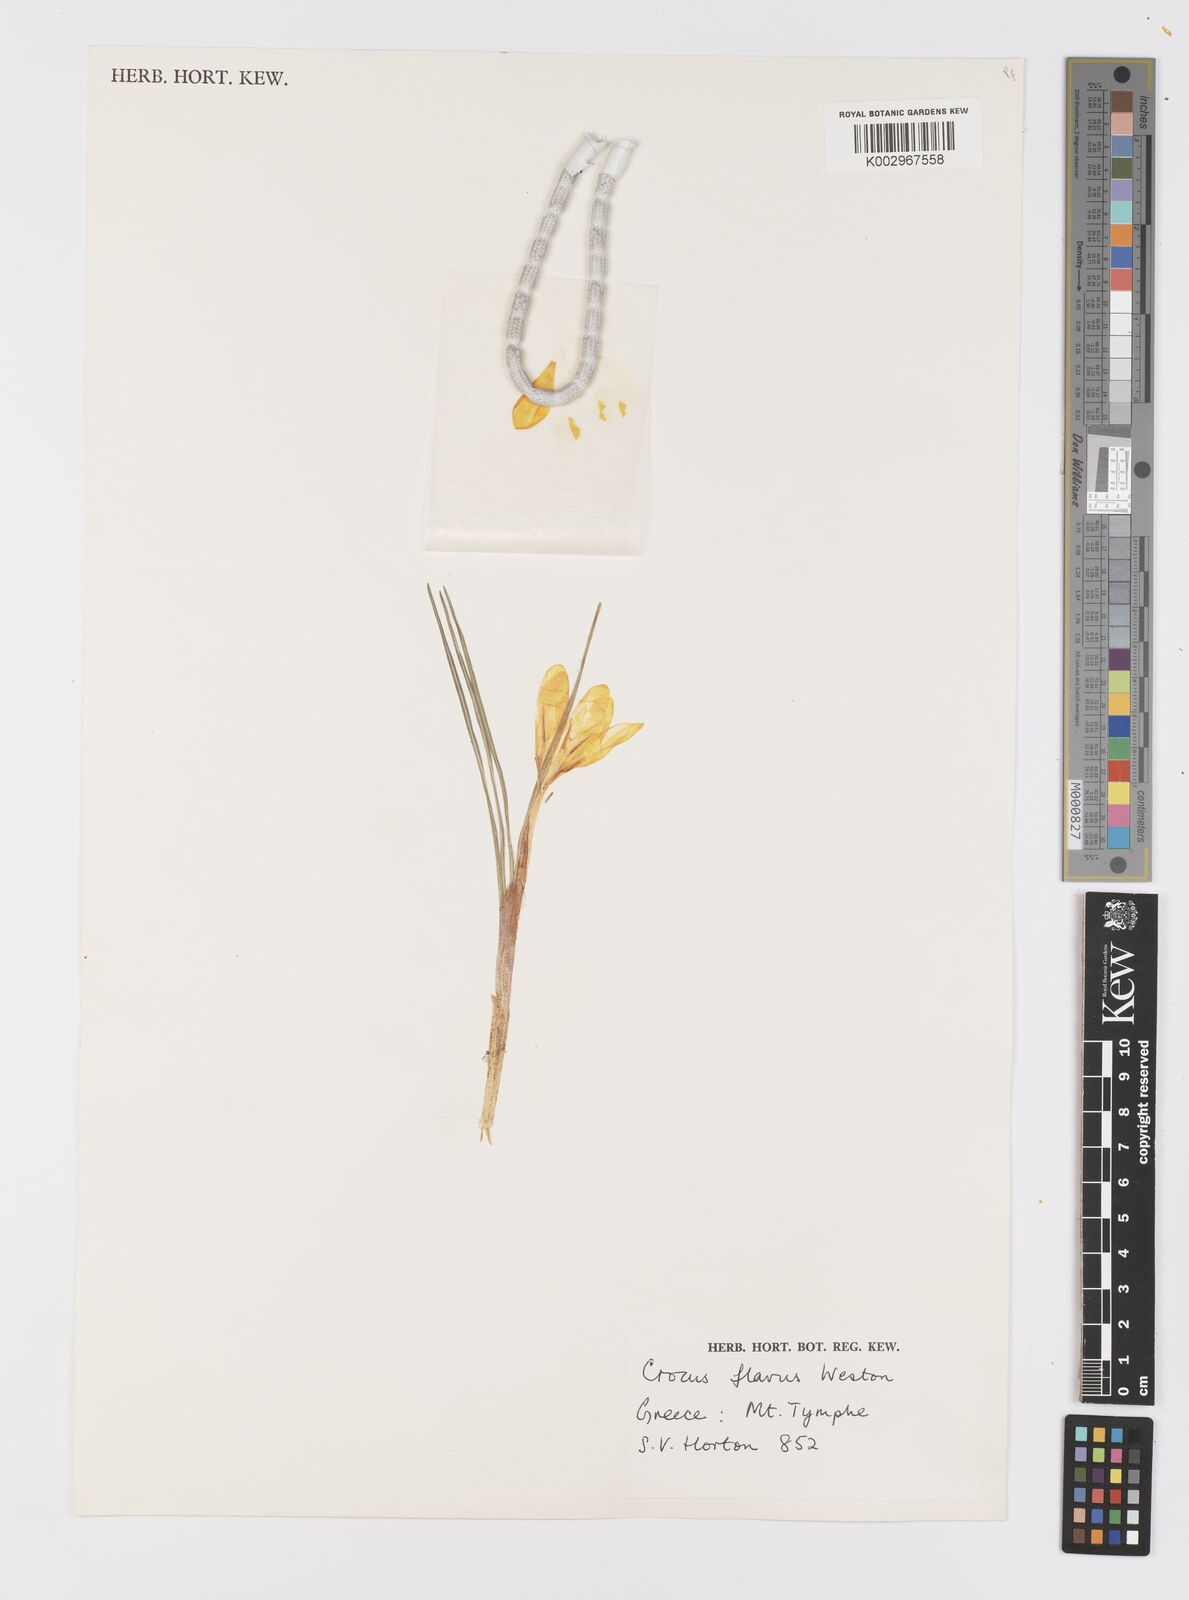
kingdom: Plantae
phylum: Tracheophyta
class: Liliopsida
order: Asparagales
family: Iridaceae
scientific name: Iridaceae
